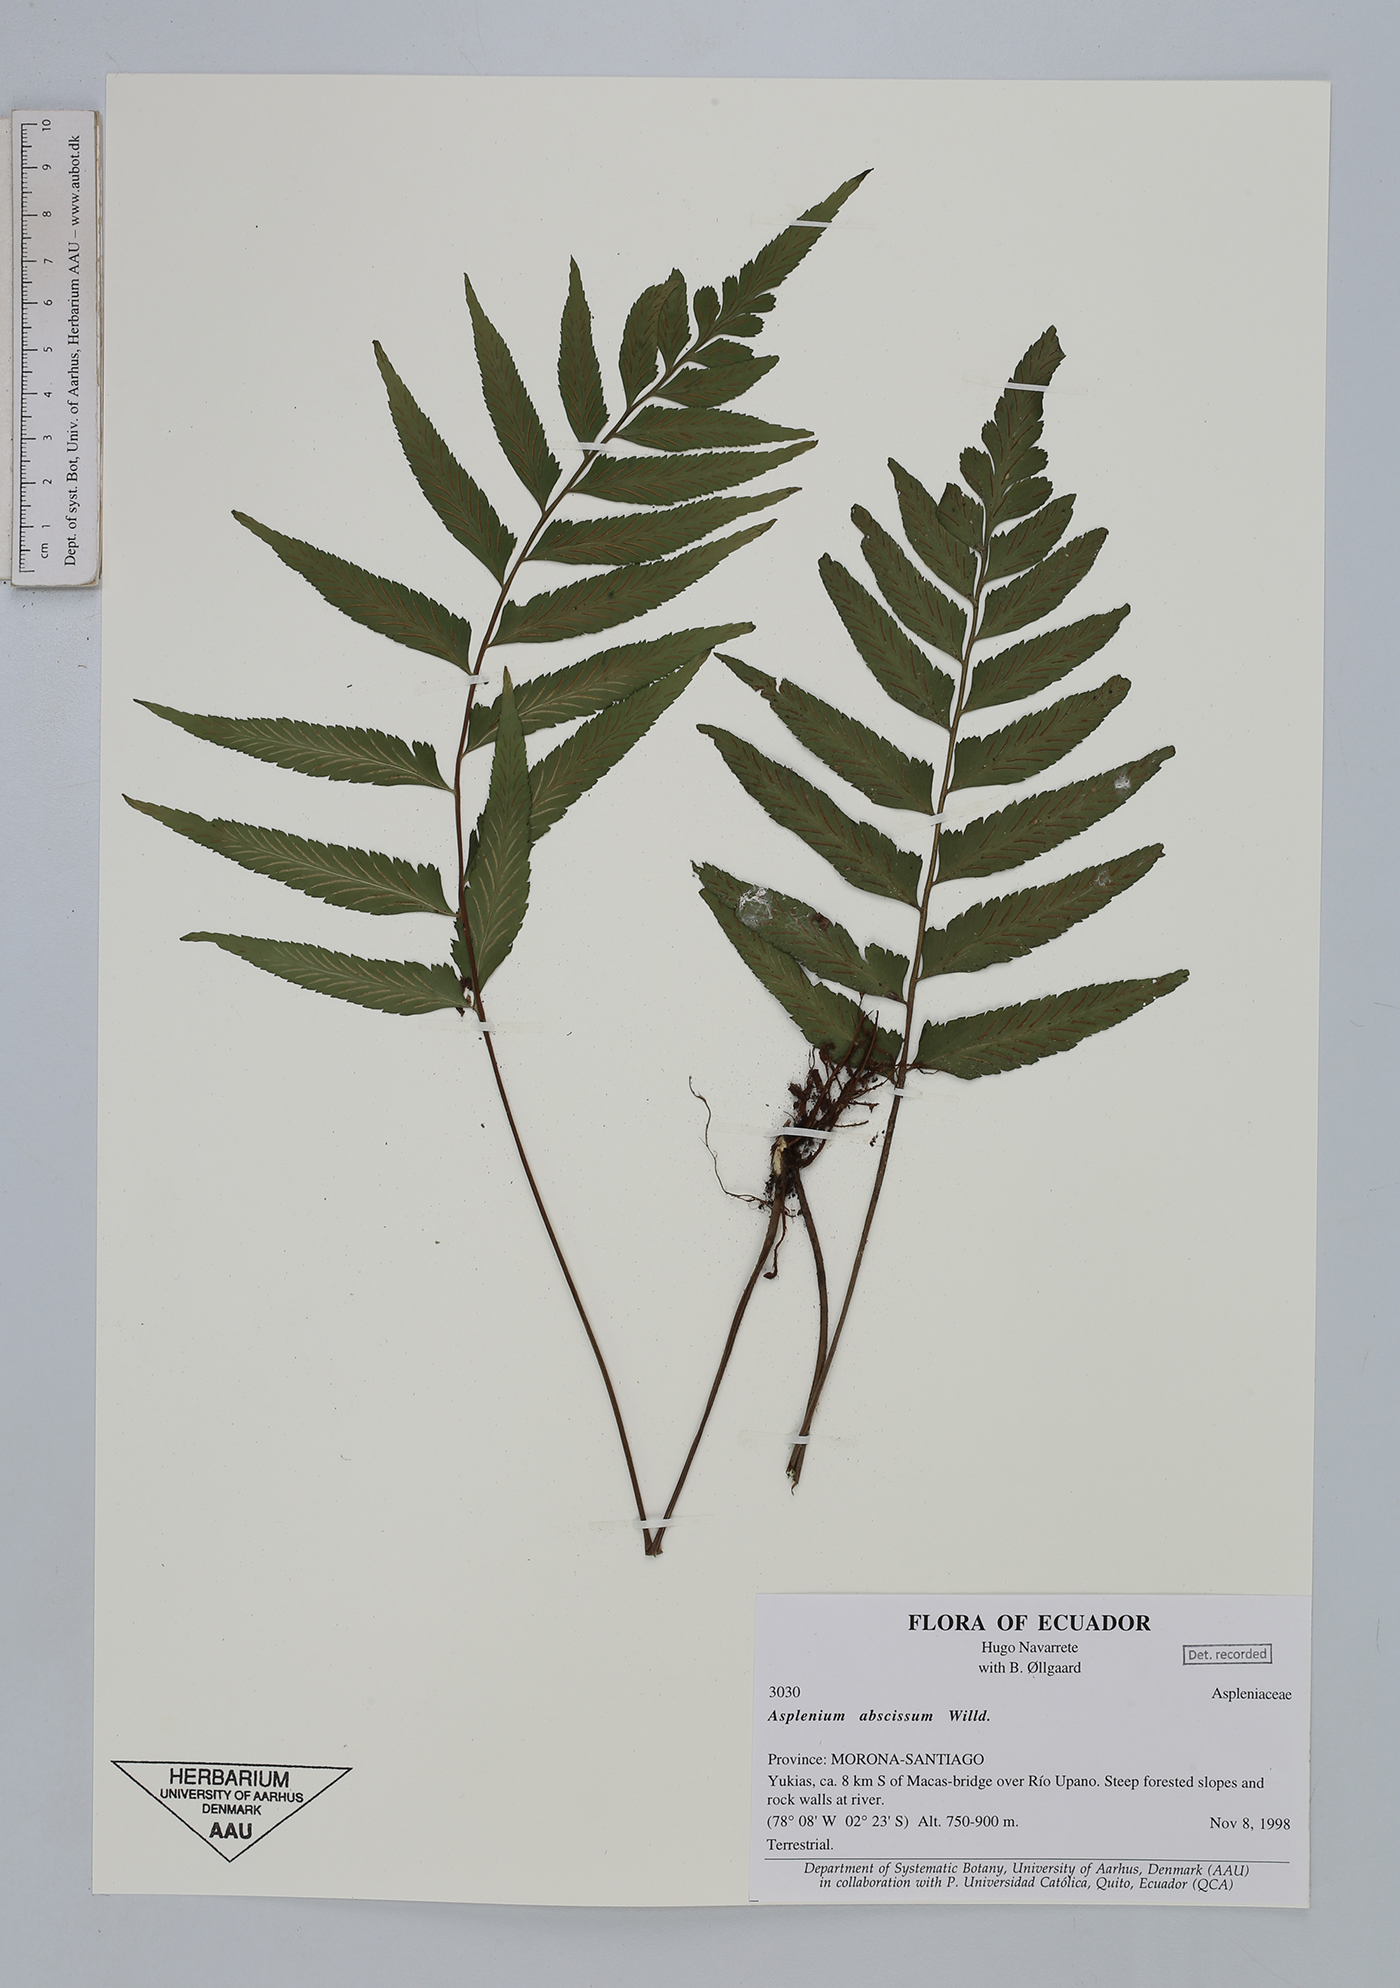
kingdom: Plantae
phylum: Tracheophyta
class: Polypodiopsida
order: Polypodiales
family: Aspleniaceae
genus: Asplenium
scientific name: Asplenium abscissum
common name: Cutleaf spleenwort
